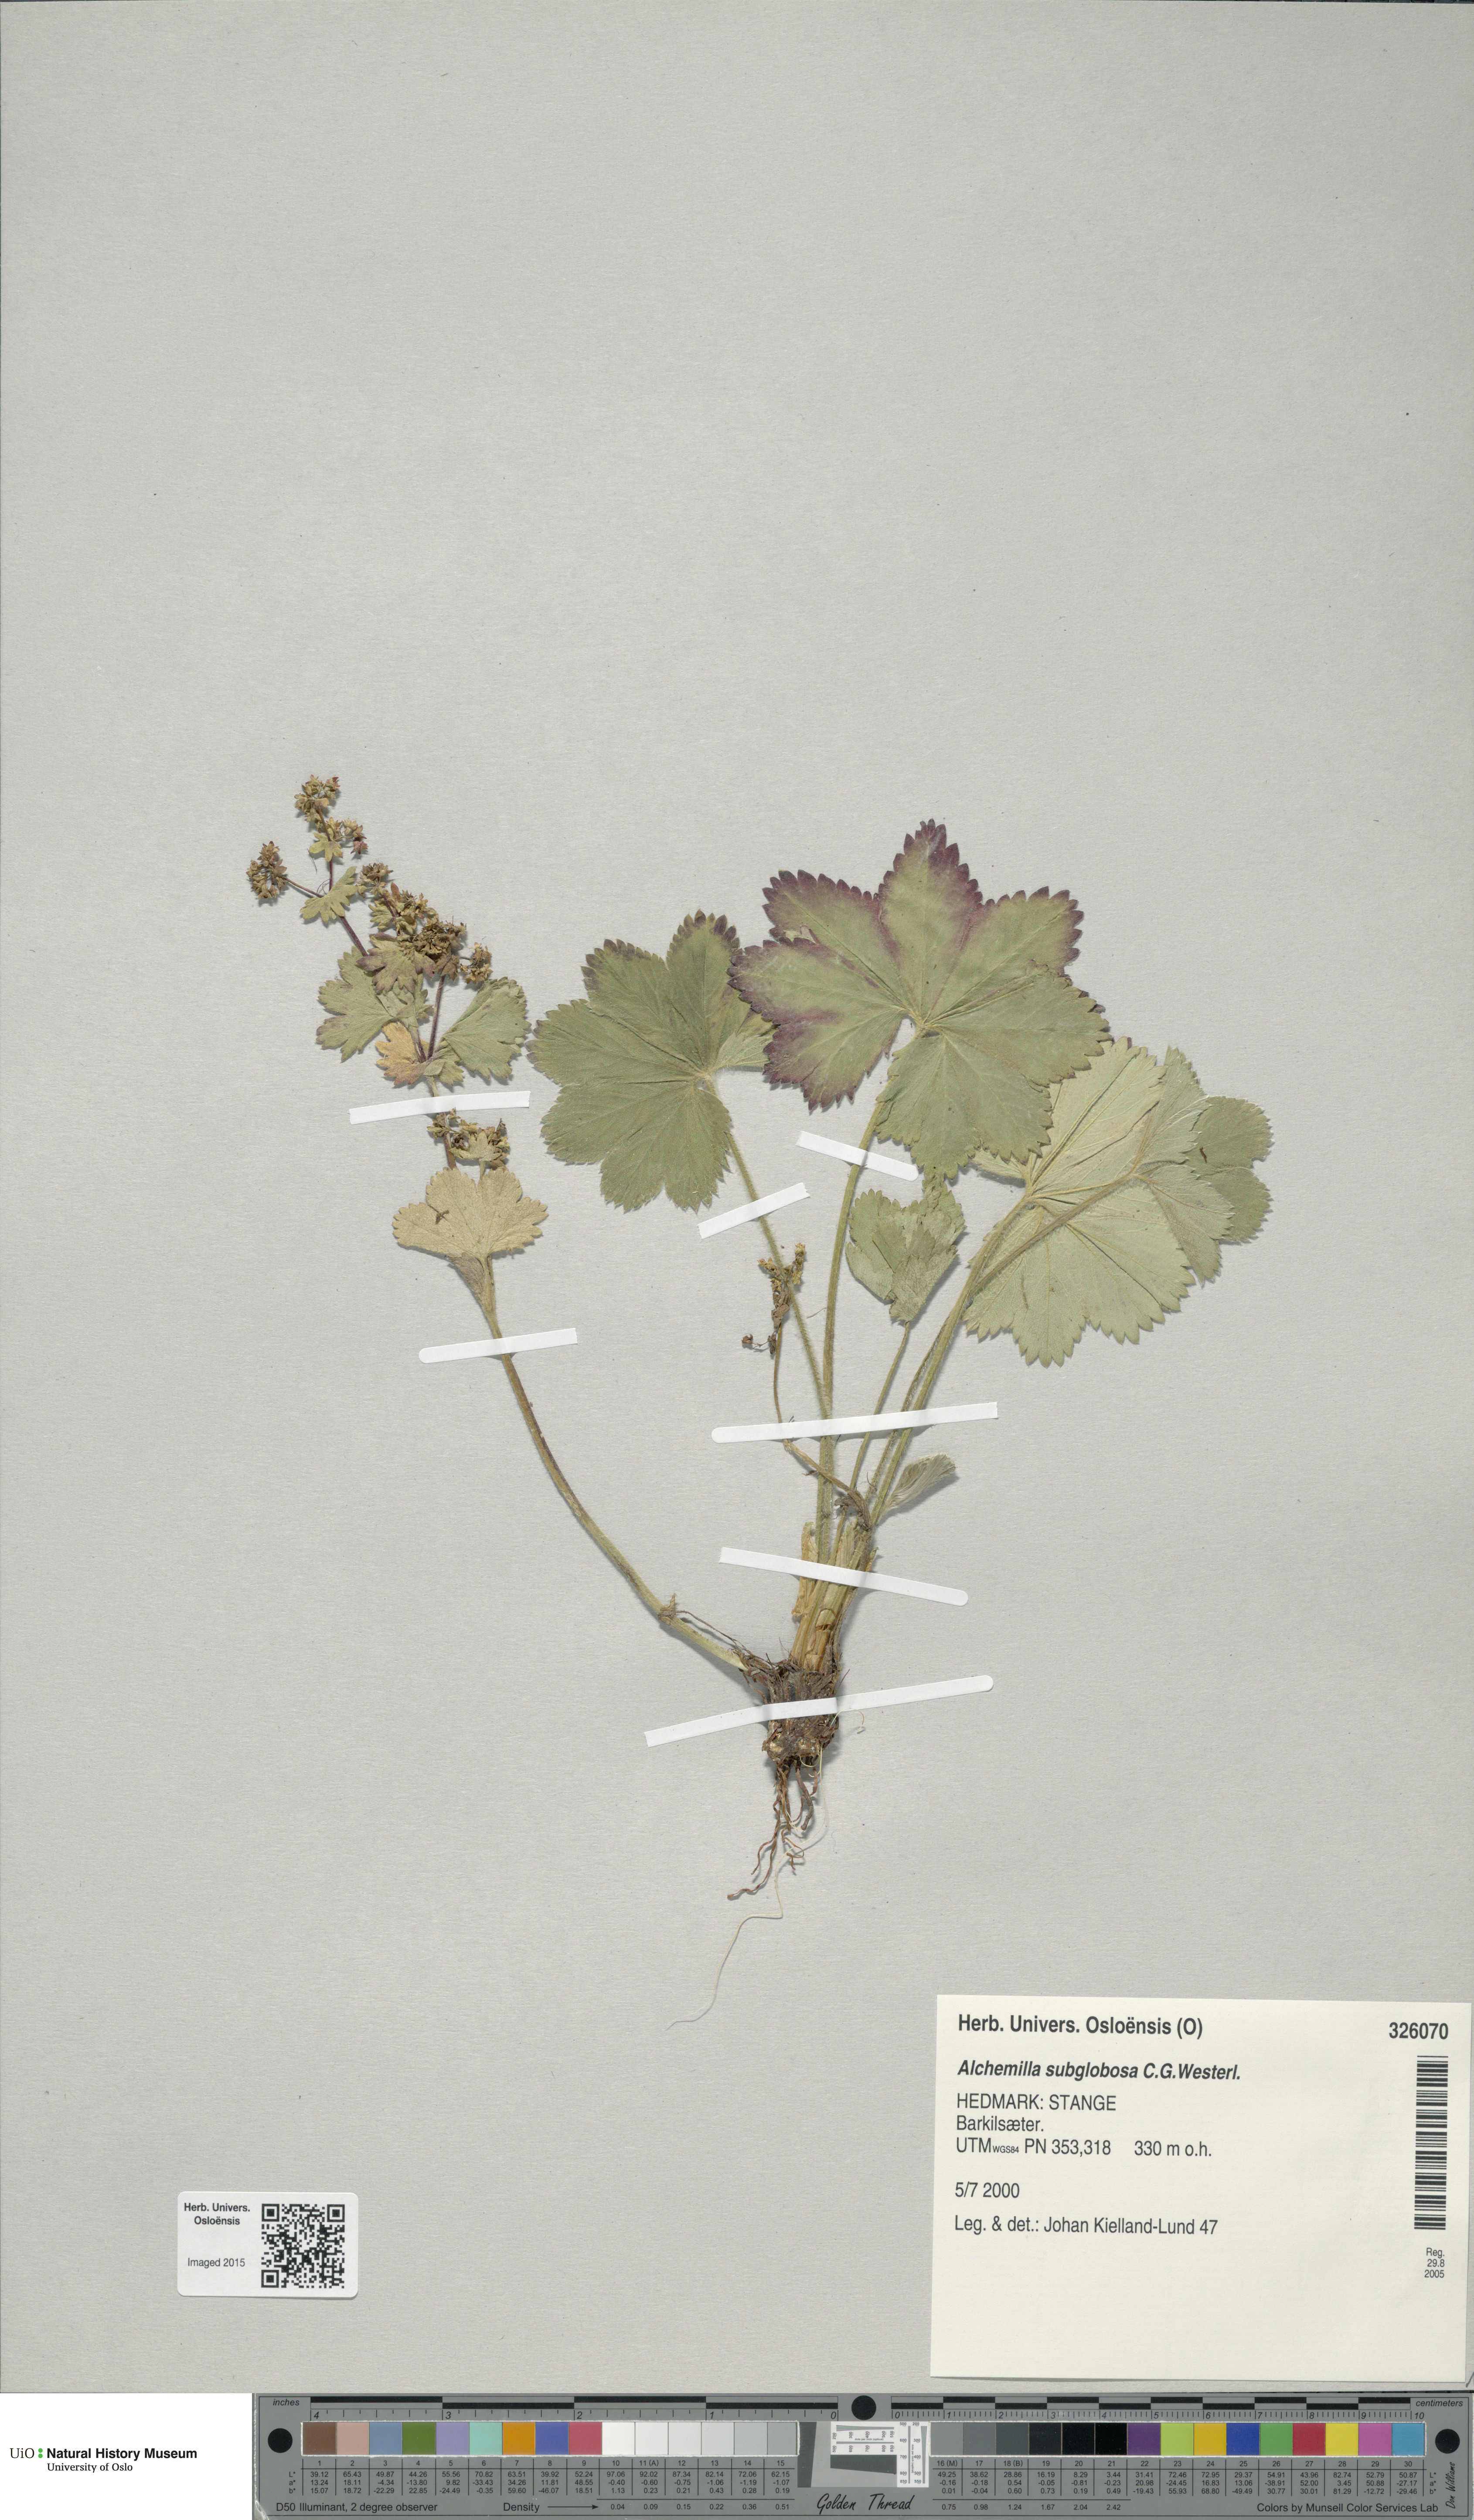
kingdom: Plantae
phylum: Tracheophyta
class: Magnoliopsida
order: Rosales
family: Rosaceae
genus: Alchemilla
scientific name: Alchemilla subglobosa
